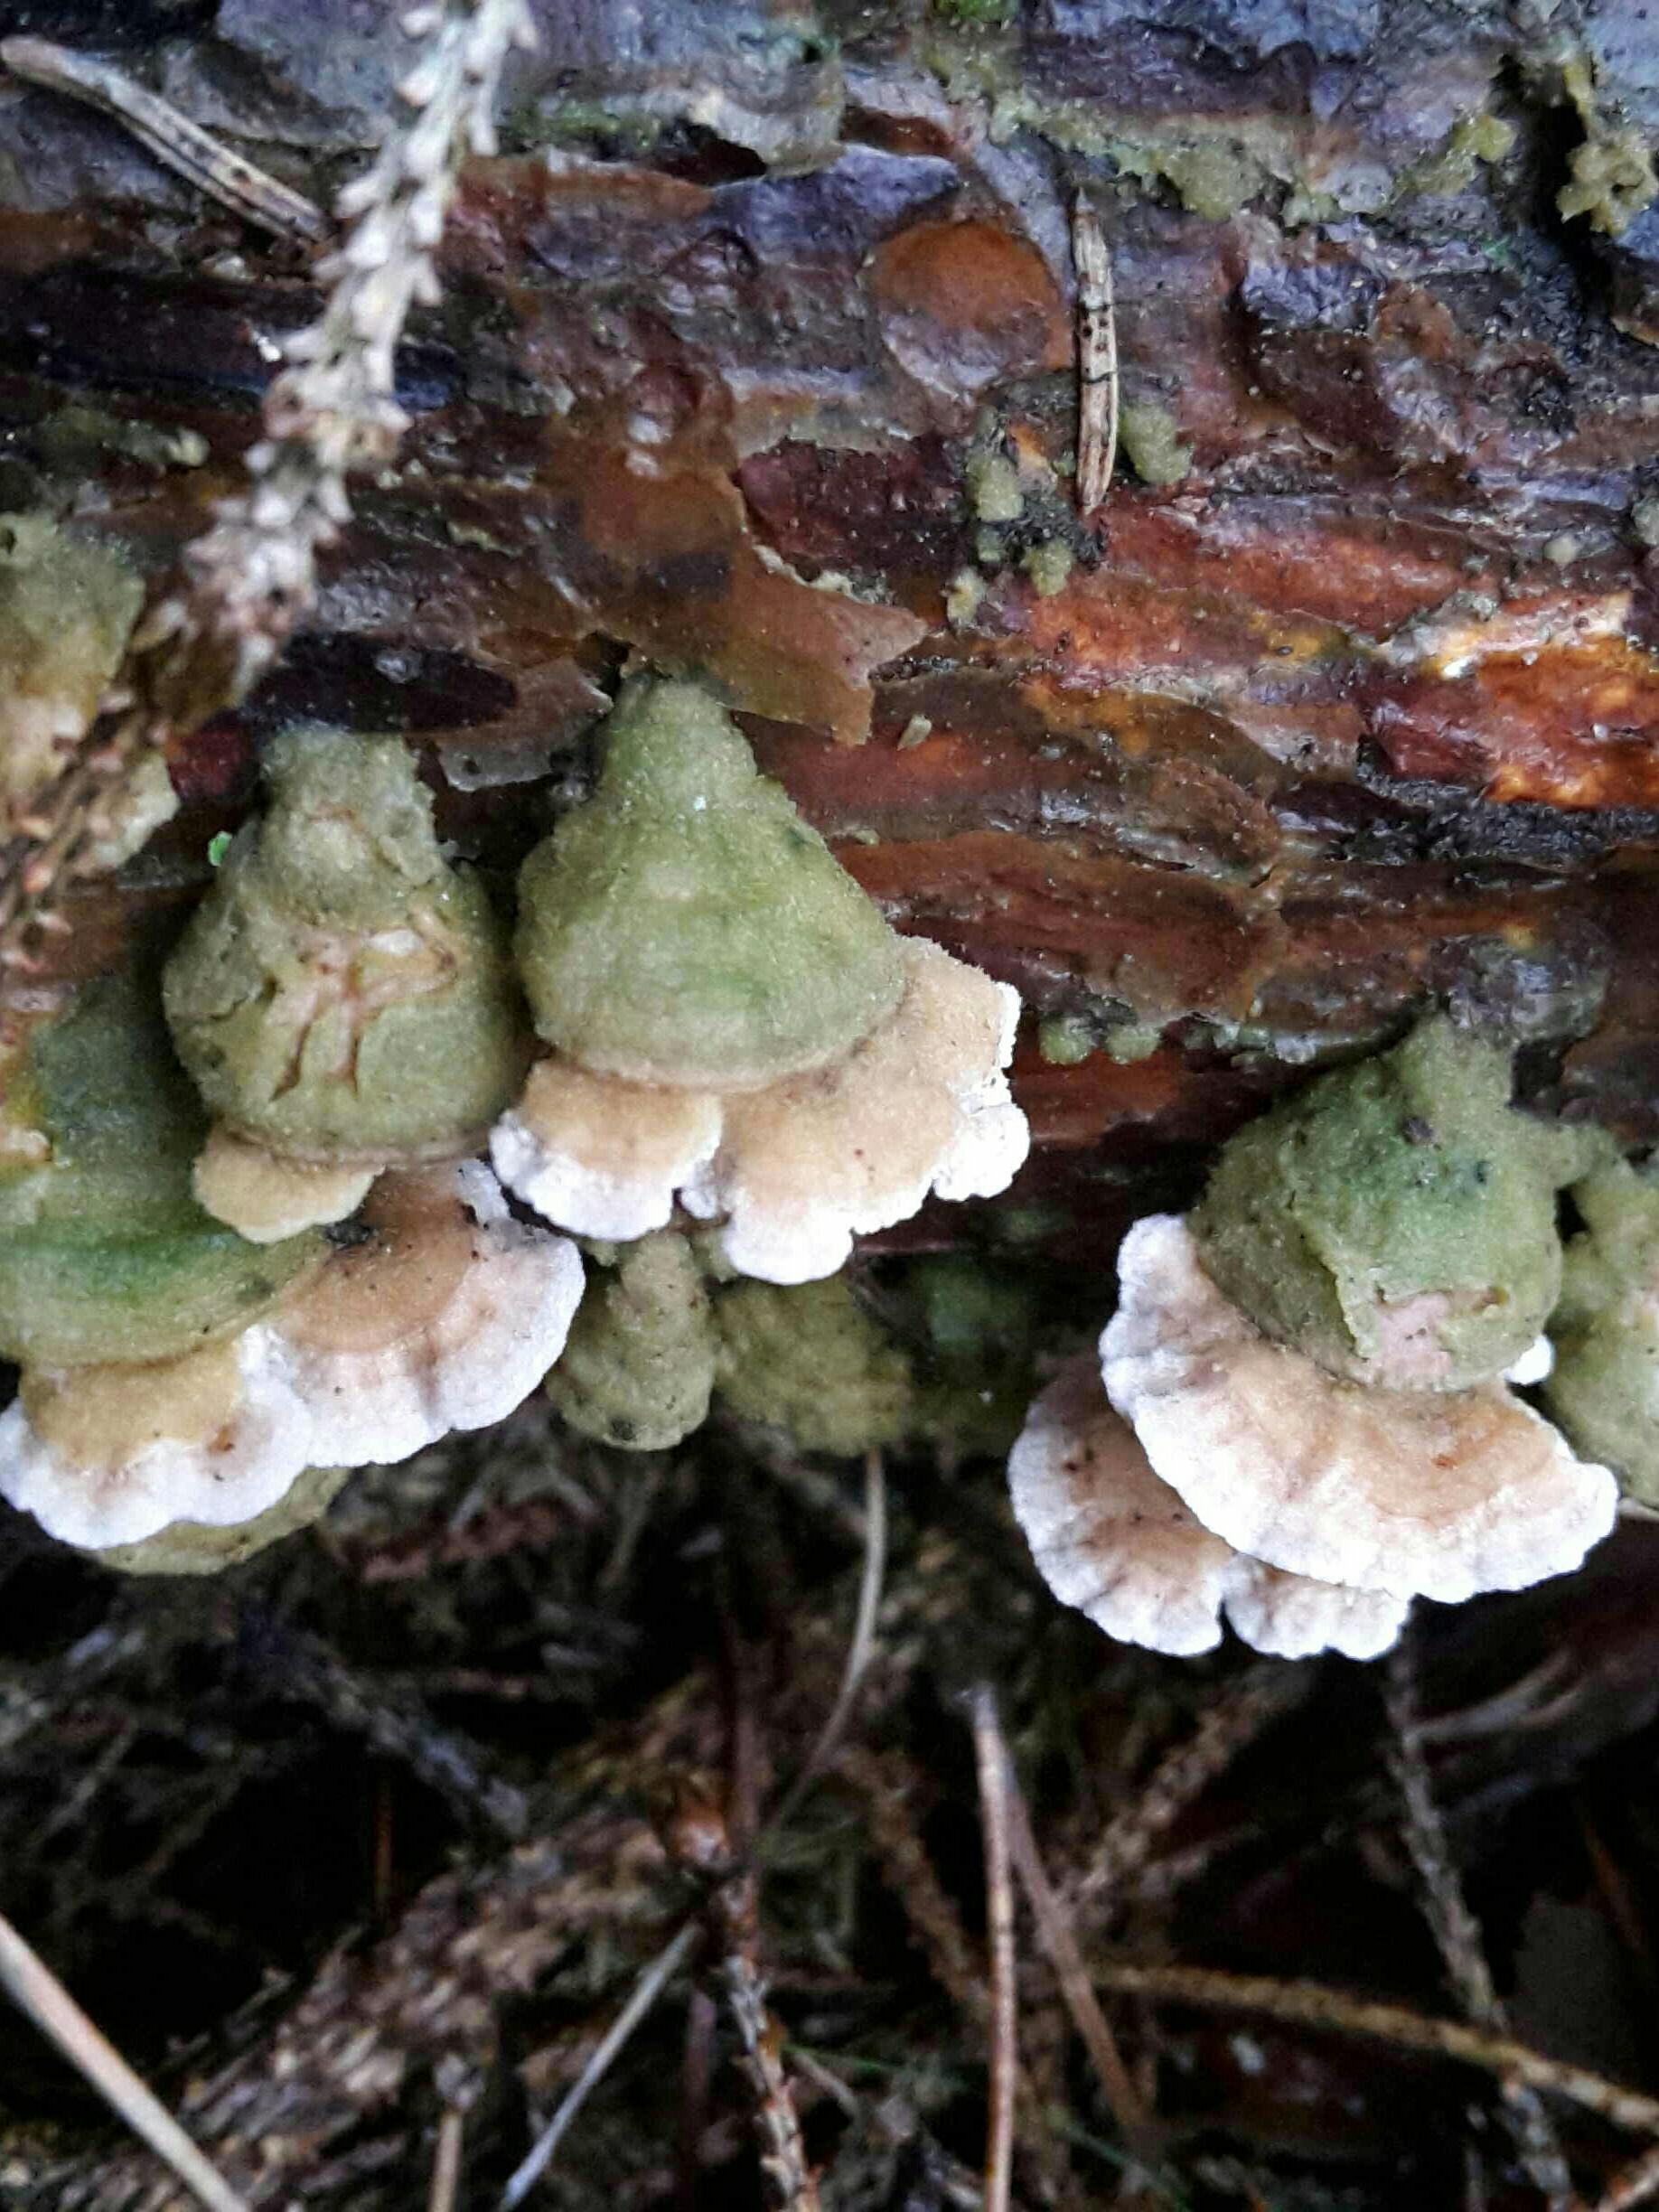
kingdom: Fungi
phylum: Basidiomycota
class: Agaricomycetes
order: Hymenochaetales
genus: Trichaptum
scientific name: Trichaptum abietinum
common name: almindelig violporesvamp
